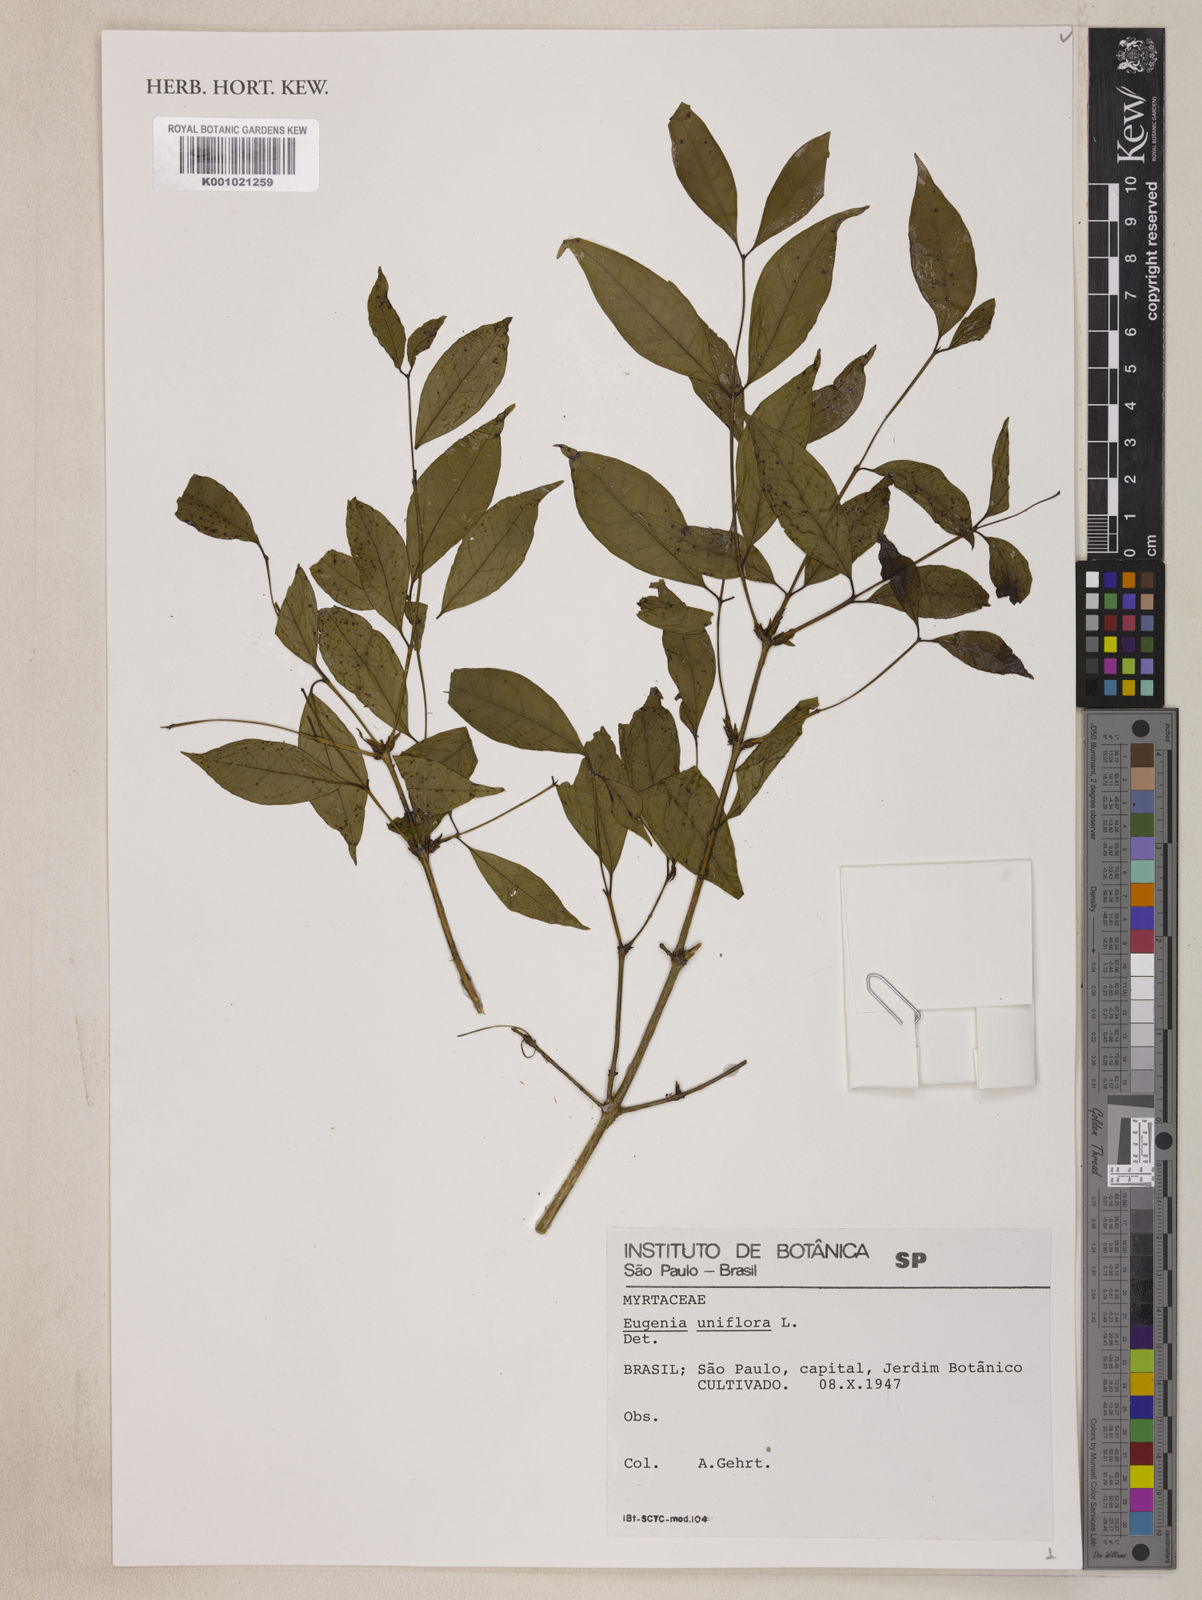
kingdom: Plantae
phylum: Tracheophyta
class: Magnoliopsida
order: Myrtales
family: Myrtaceae
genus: Eugenia
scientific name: Eugenia uniflora
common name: Surinam cherry
